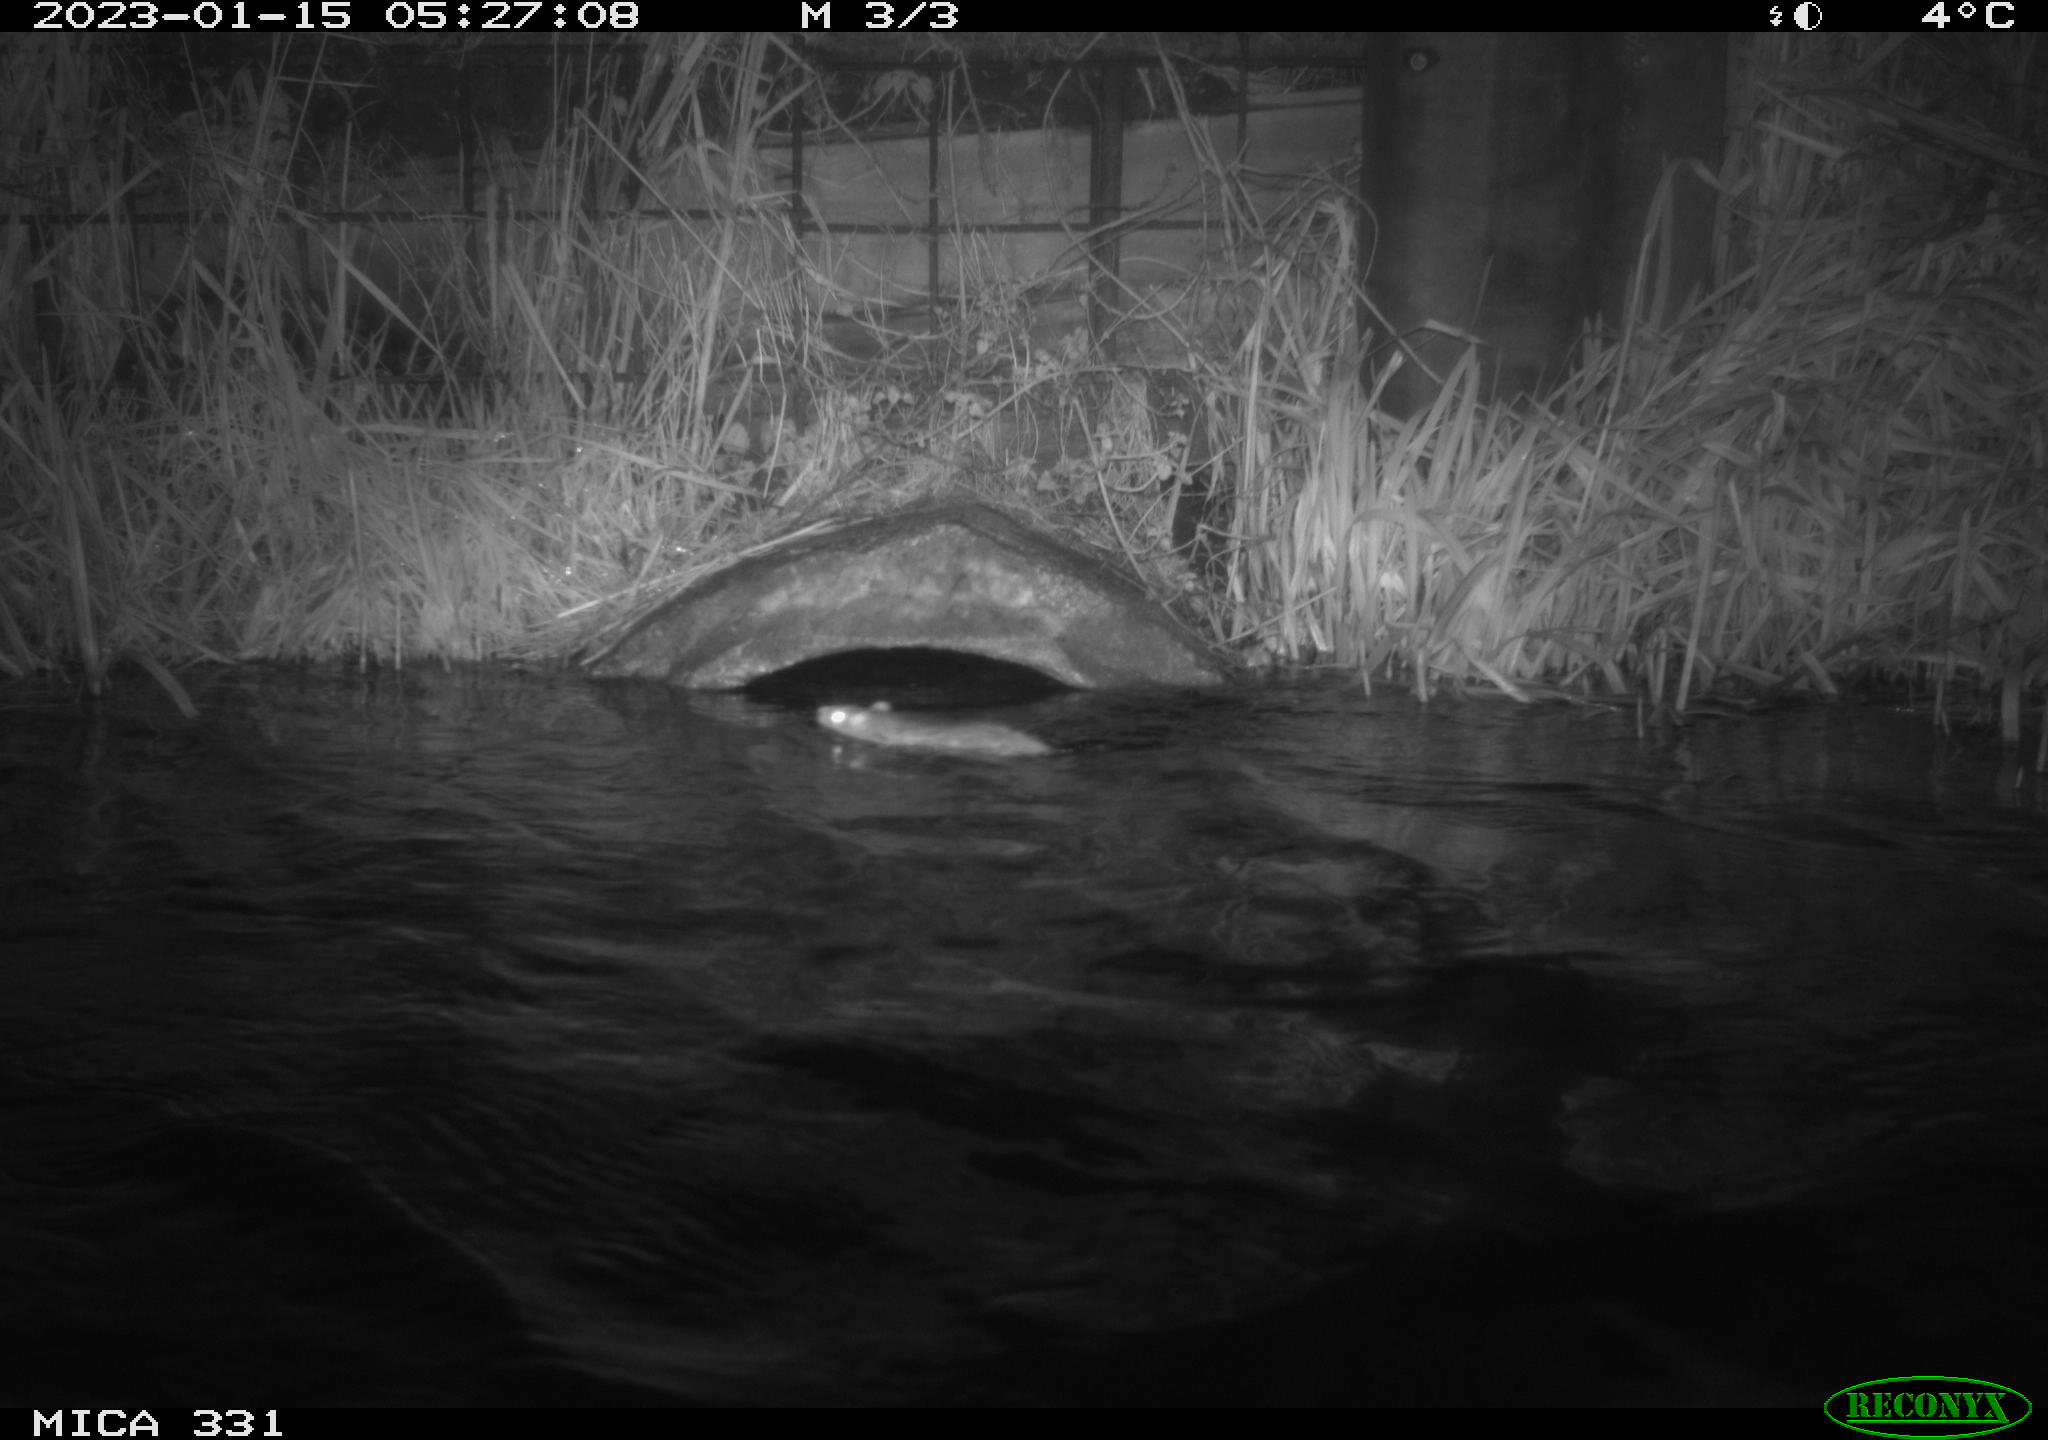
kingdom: Animalia
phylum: Chordata
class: Mammalia
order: Rodentia
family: Muridae
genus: Rattus
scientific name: Rattus norvegicus
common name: Brown rat
